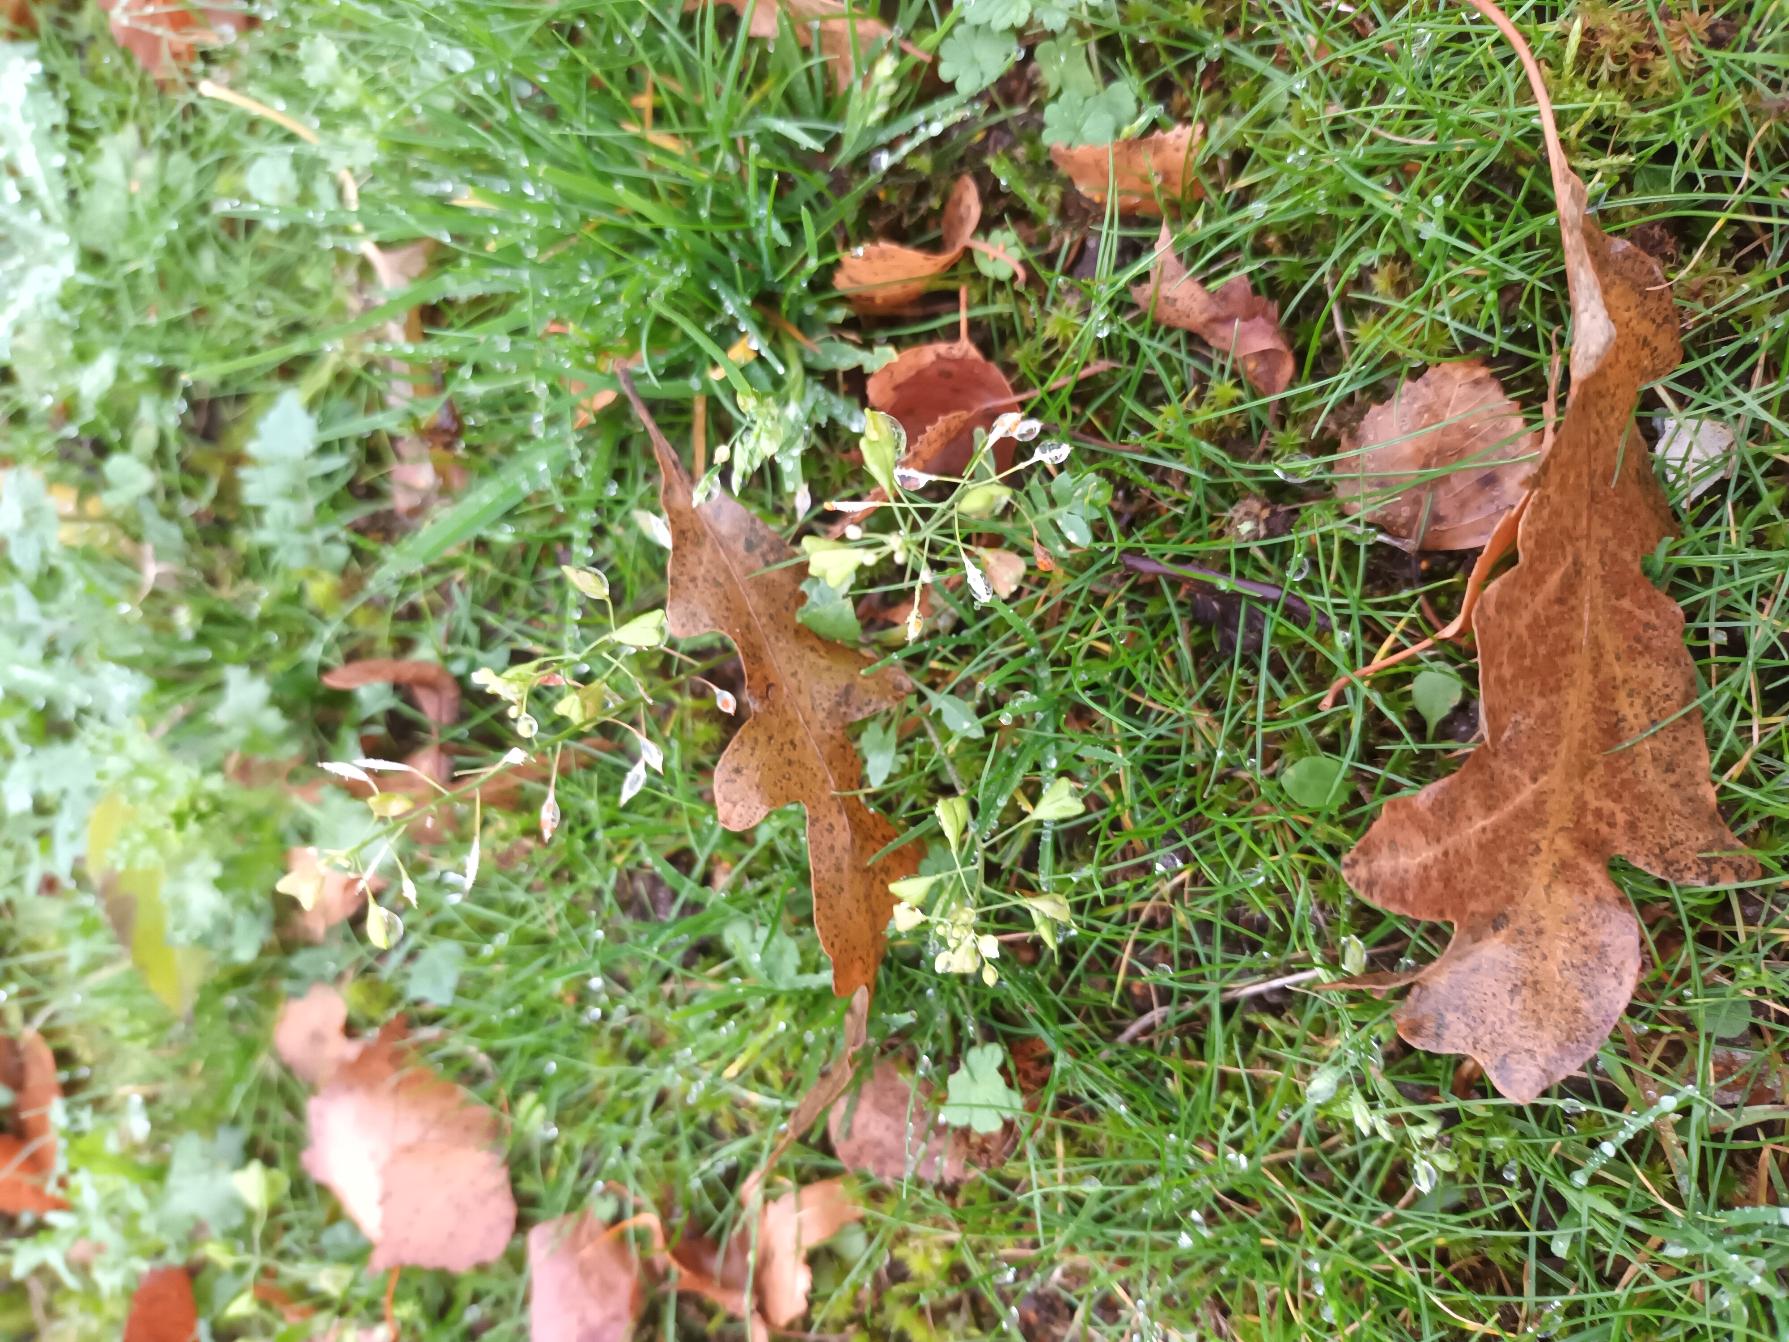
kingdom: Plantae
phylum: Tracheophyta
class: Magnoliopsida
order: Brassicales
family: Brassicaceae
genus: Capsella
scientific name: Capsella bursa-pastoris
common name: Hyrdetaske
